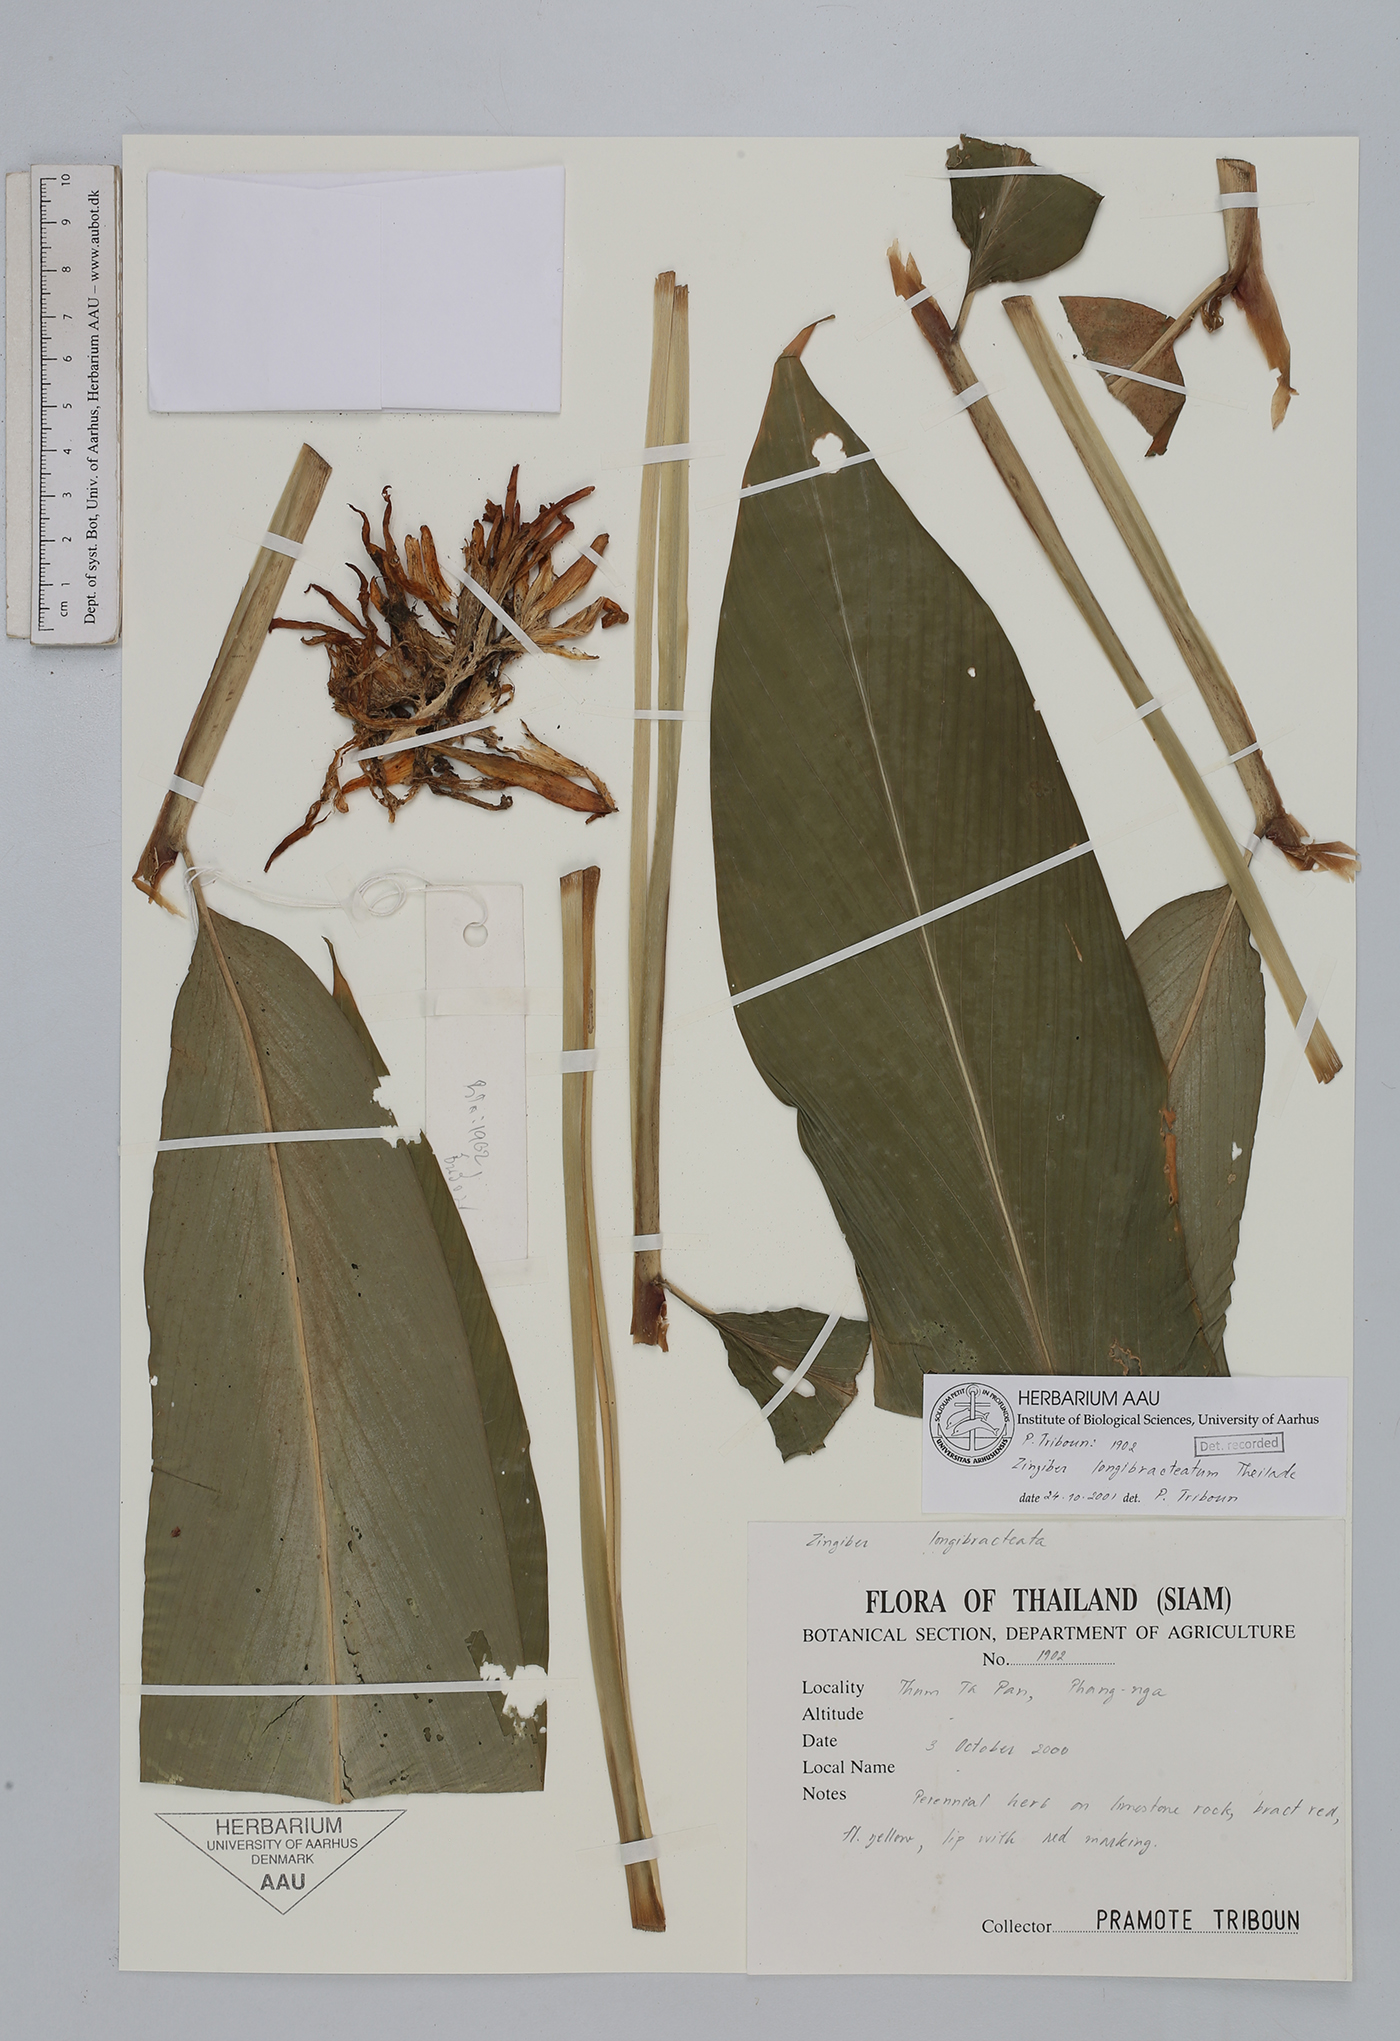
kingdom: Plantae
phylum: Tracheophyta
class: Liliopsida
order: Zingiberales
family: Zingiberaceae
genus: Zingiber
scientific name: Zingiber longibracteatum
